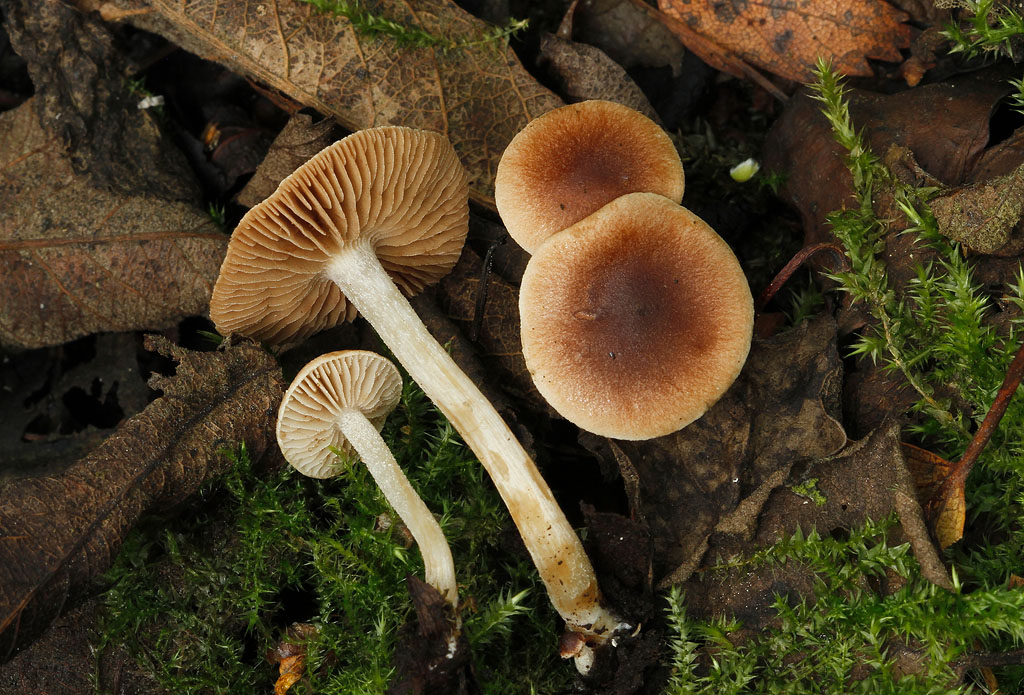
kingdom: Fungi
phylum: Basidiomycota
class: Agaricomycetes
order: Agaricales
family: Hymenogastraceae
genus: Hebeloma
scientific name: Hebeloma pusillum
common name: mose-tåreblad
